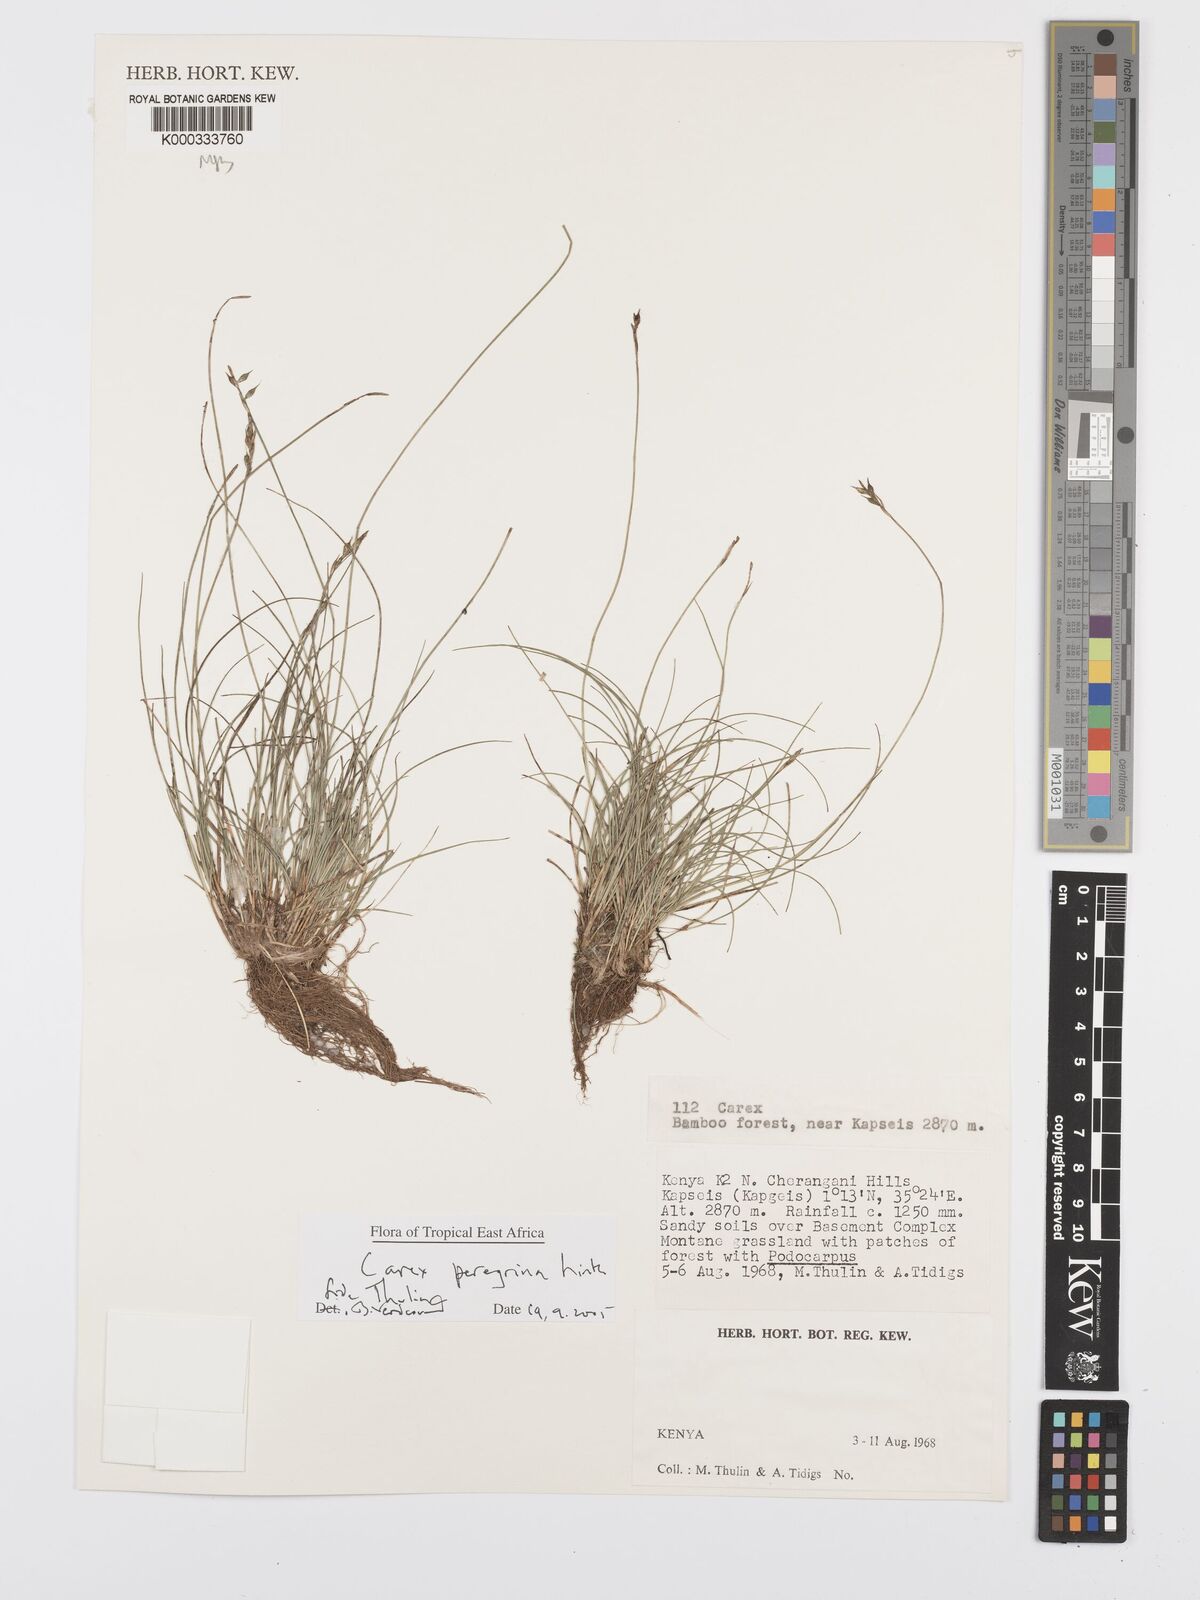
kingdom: Plantae
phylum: Tracheophyta
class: Liliopsida
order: Poales
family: Cyperaceae
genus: Carex
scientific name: Carex peregrina
